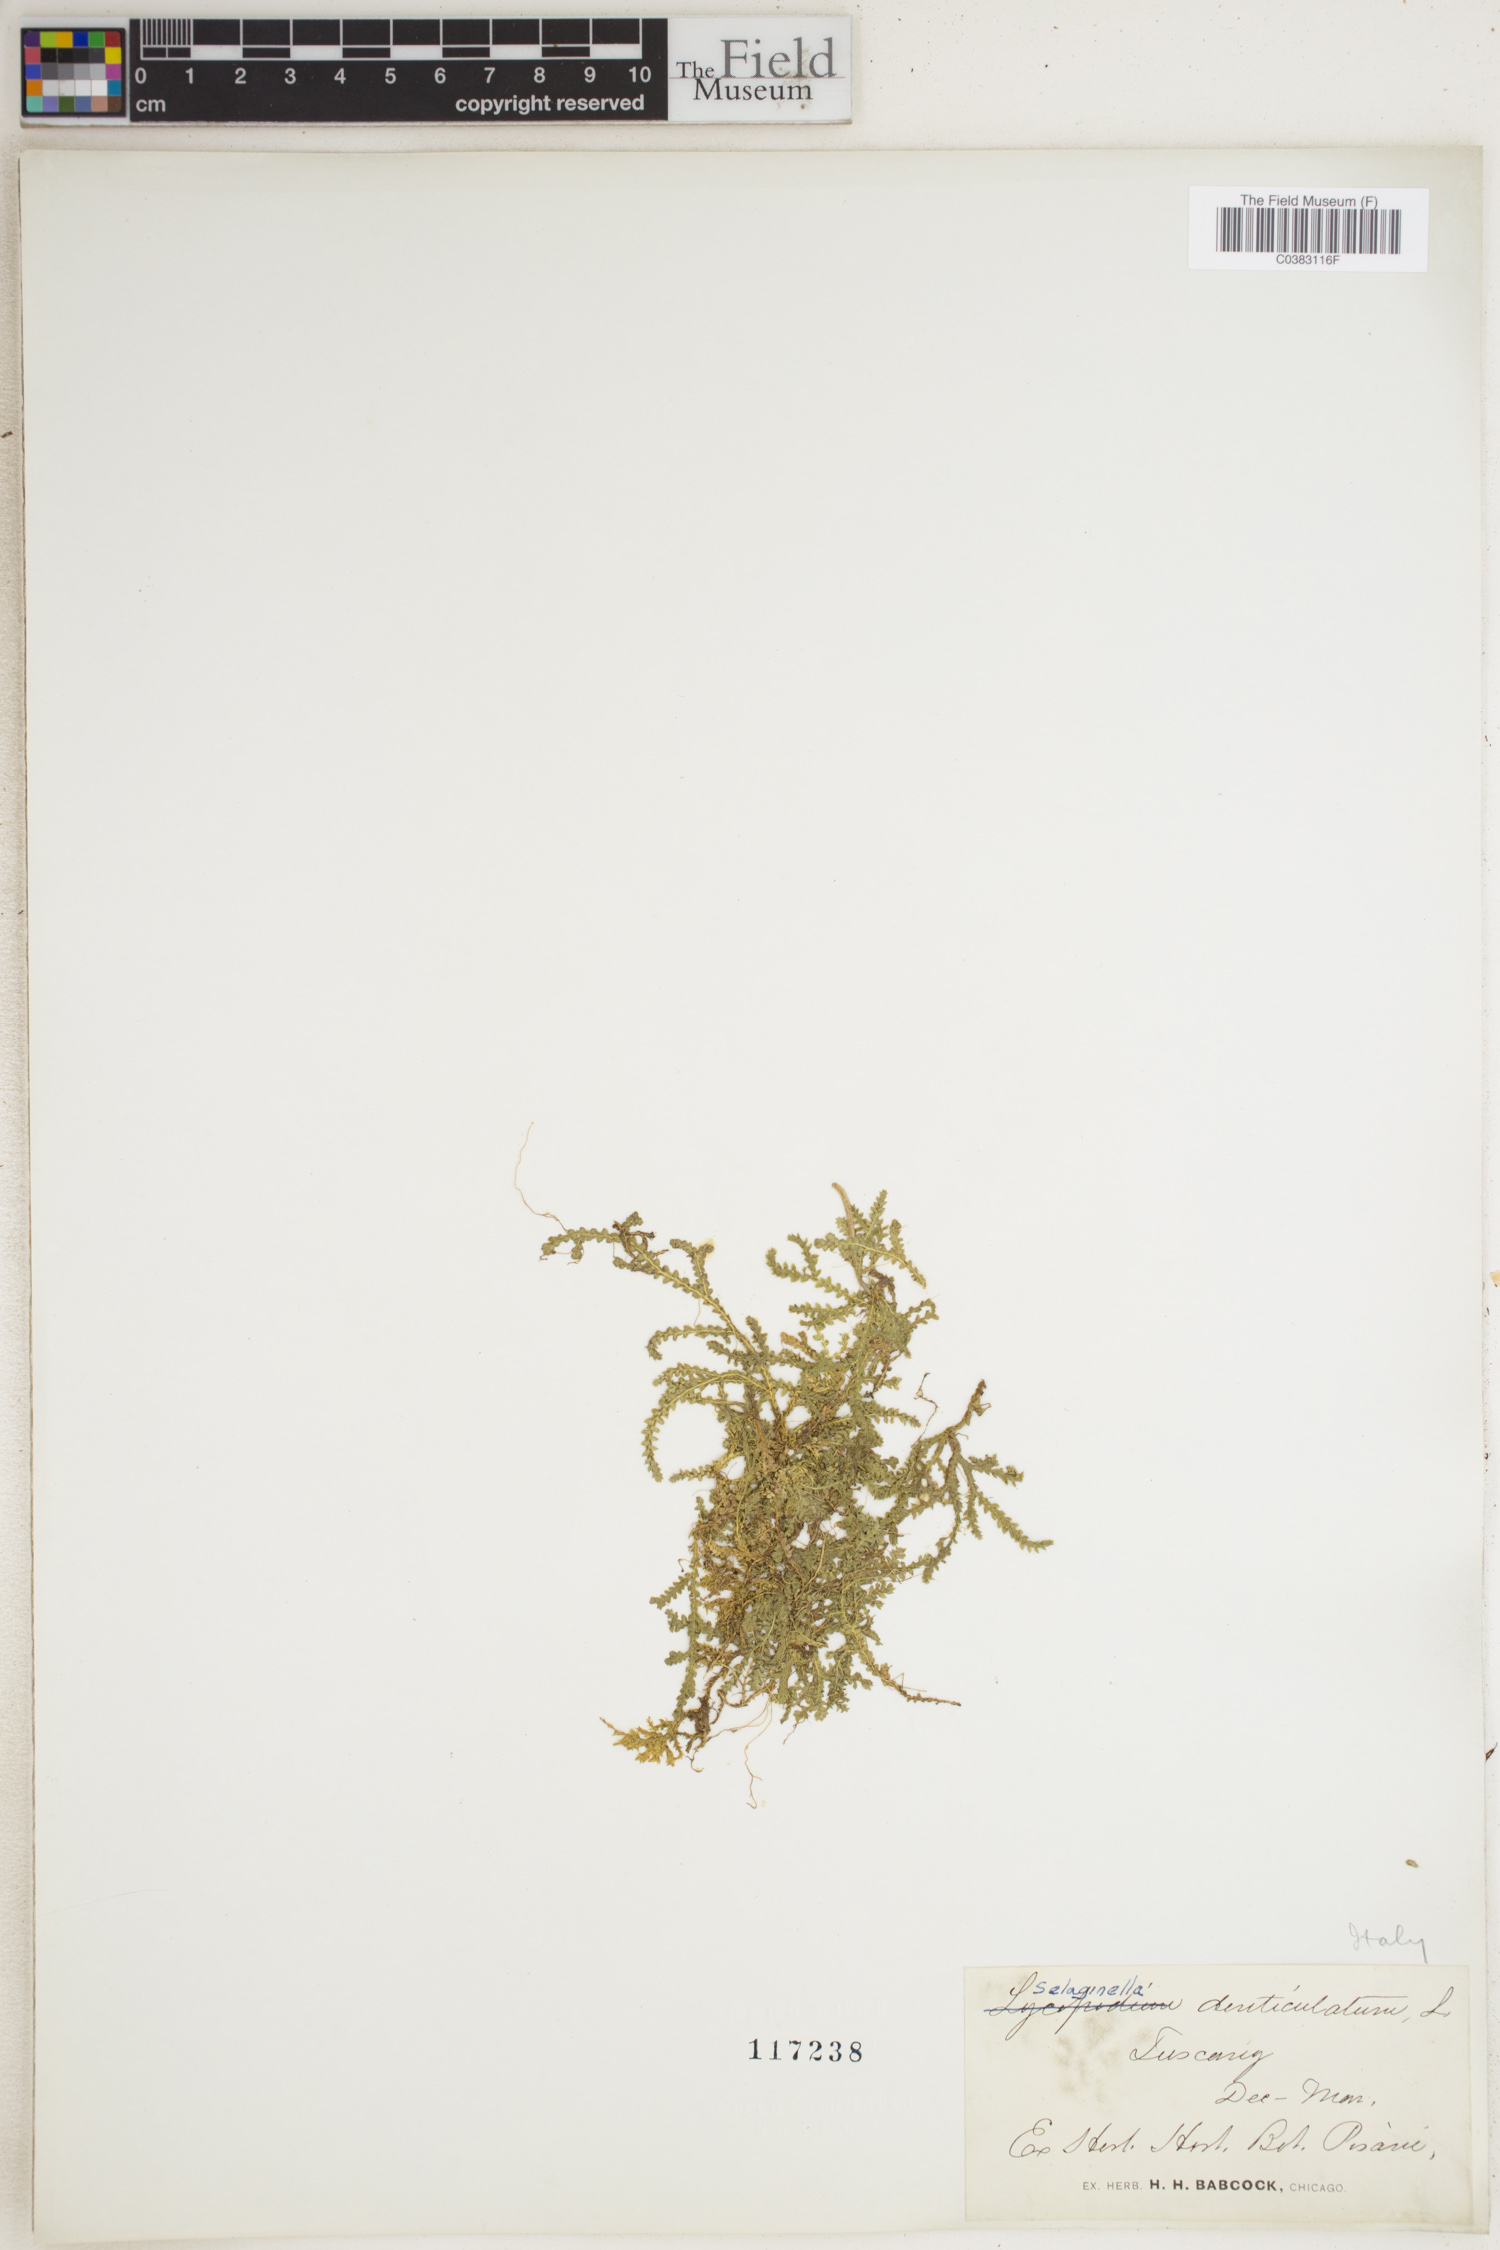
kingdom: Plantae
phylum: Tracheophyta
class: Lycopodiopsida
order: Selaginellales
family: Selaginellaceae
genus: Selaginella
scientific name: Selaginella denticulata
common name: Toothed-leaved clubmoss
